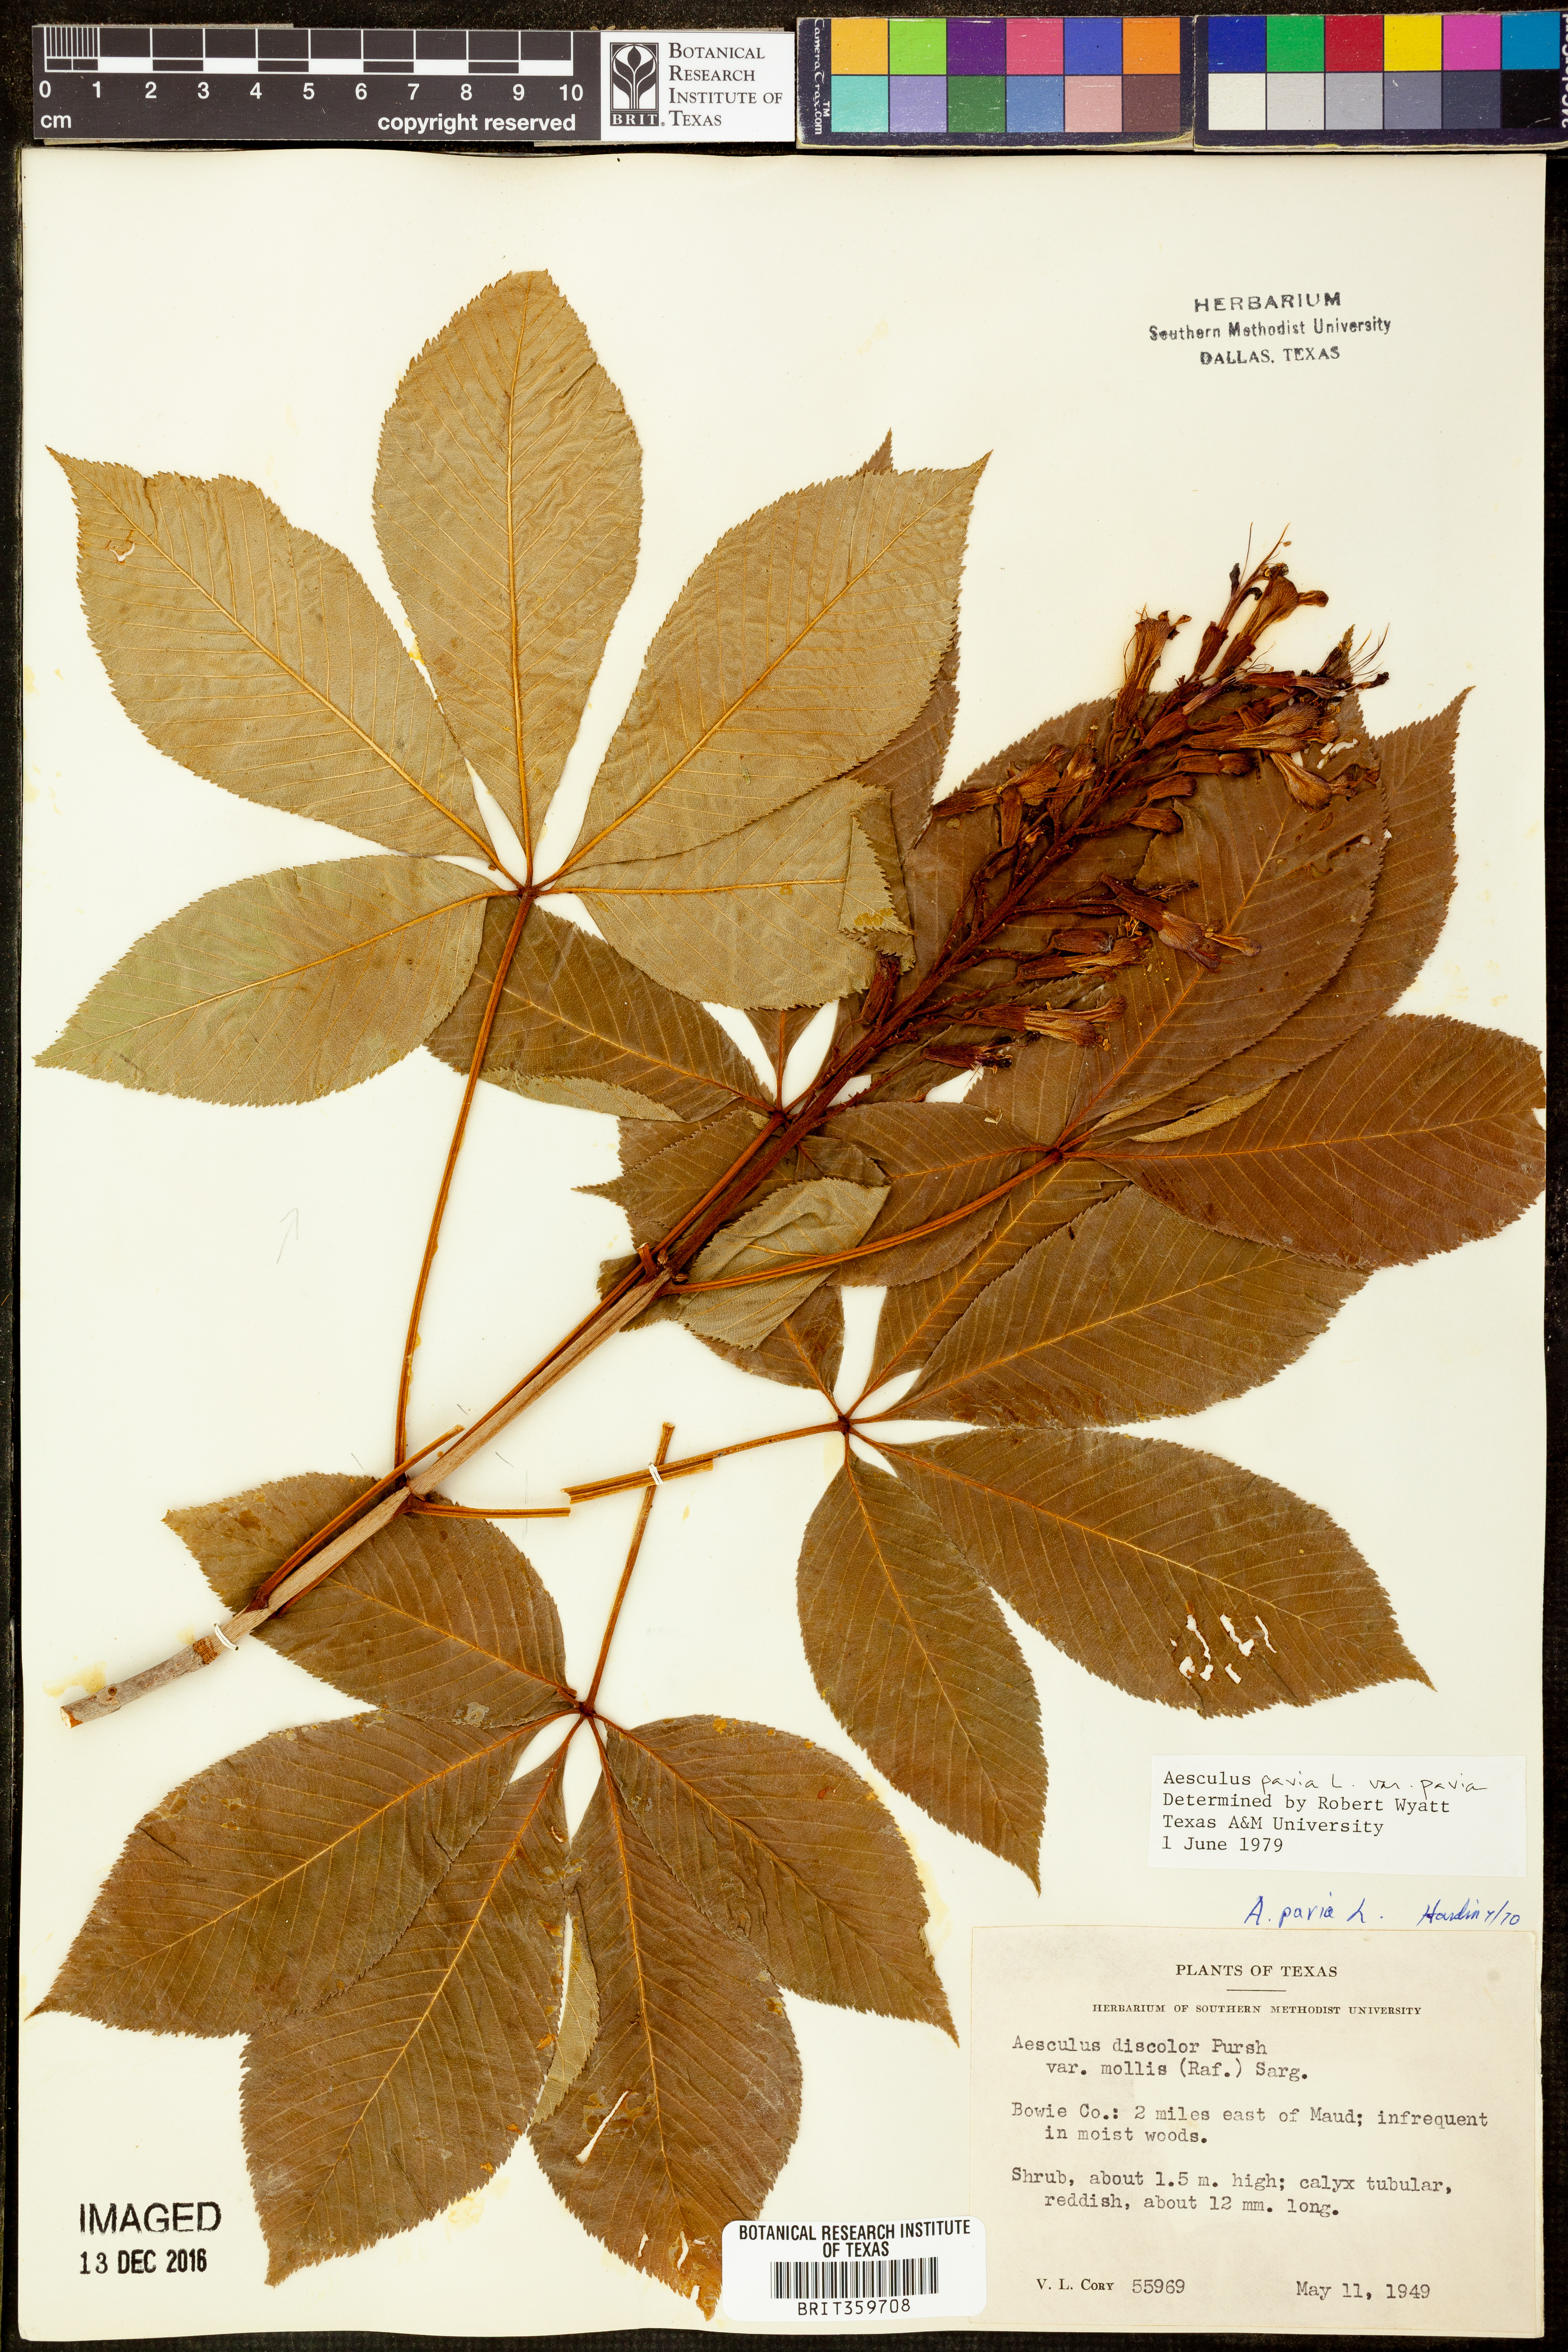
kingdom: Plantae
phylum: Tracheophyta
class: Magnoliopsida
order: Sapindales
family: Sapindaceae
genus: Aesculus
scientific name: Aesculus pavia
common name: Red buckeye
